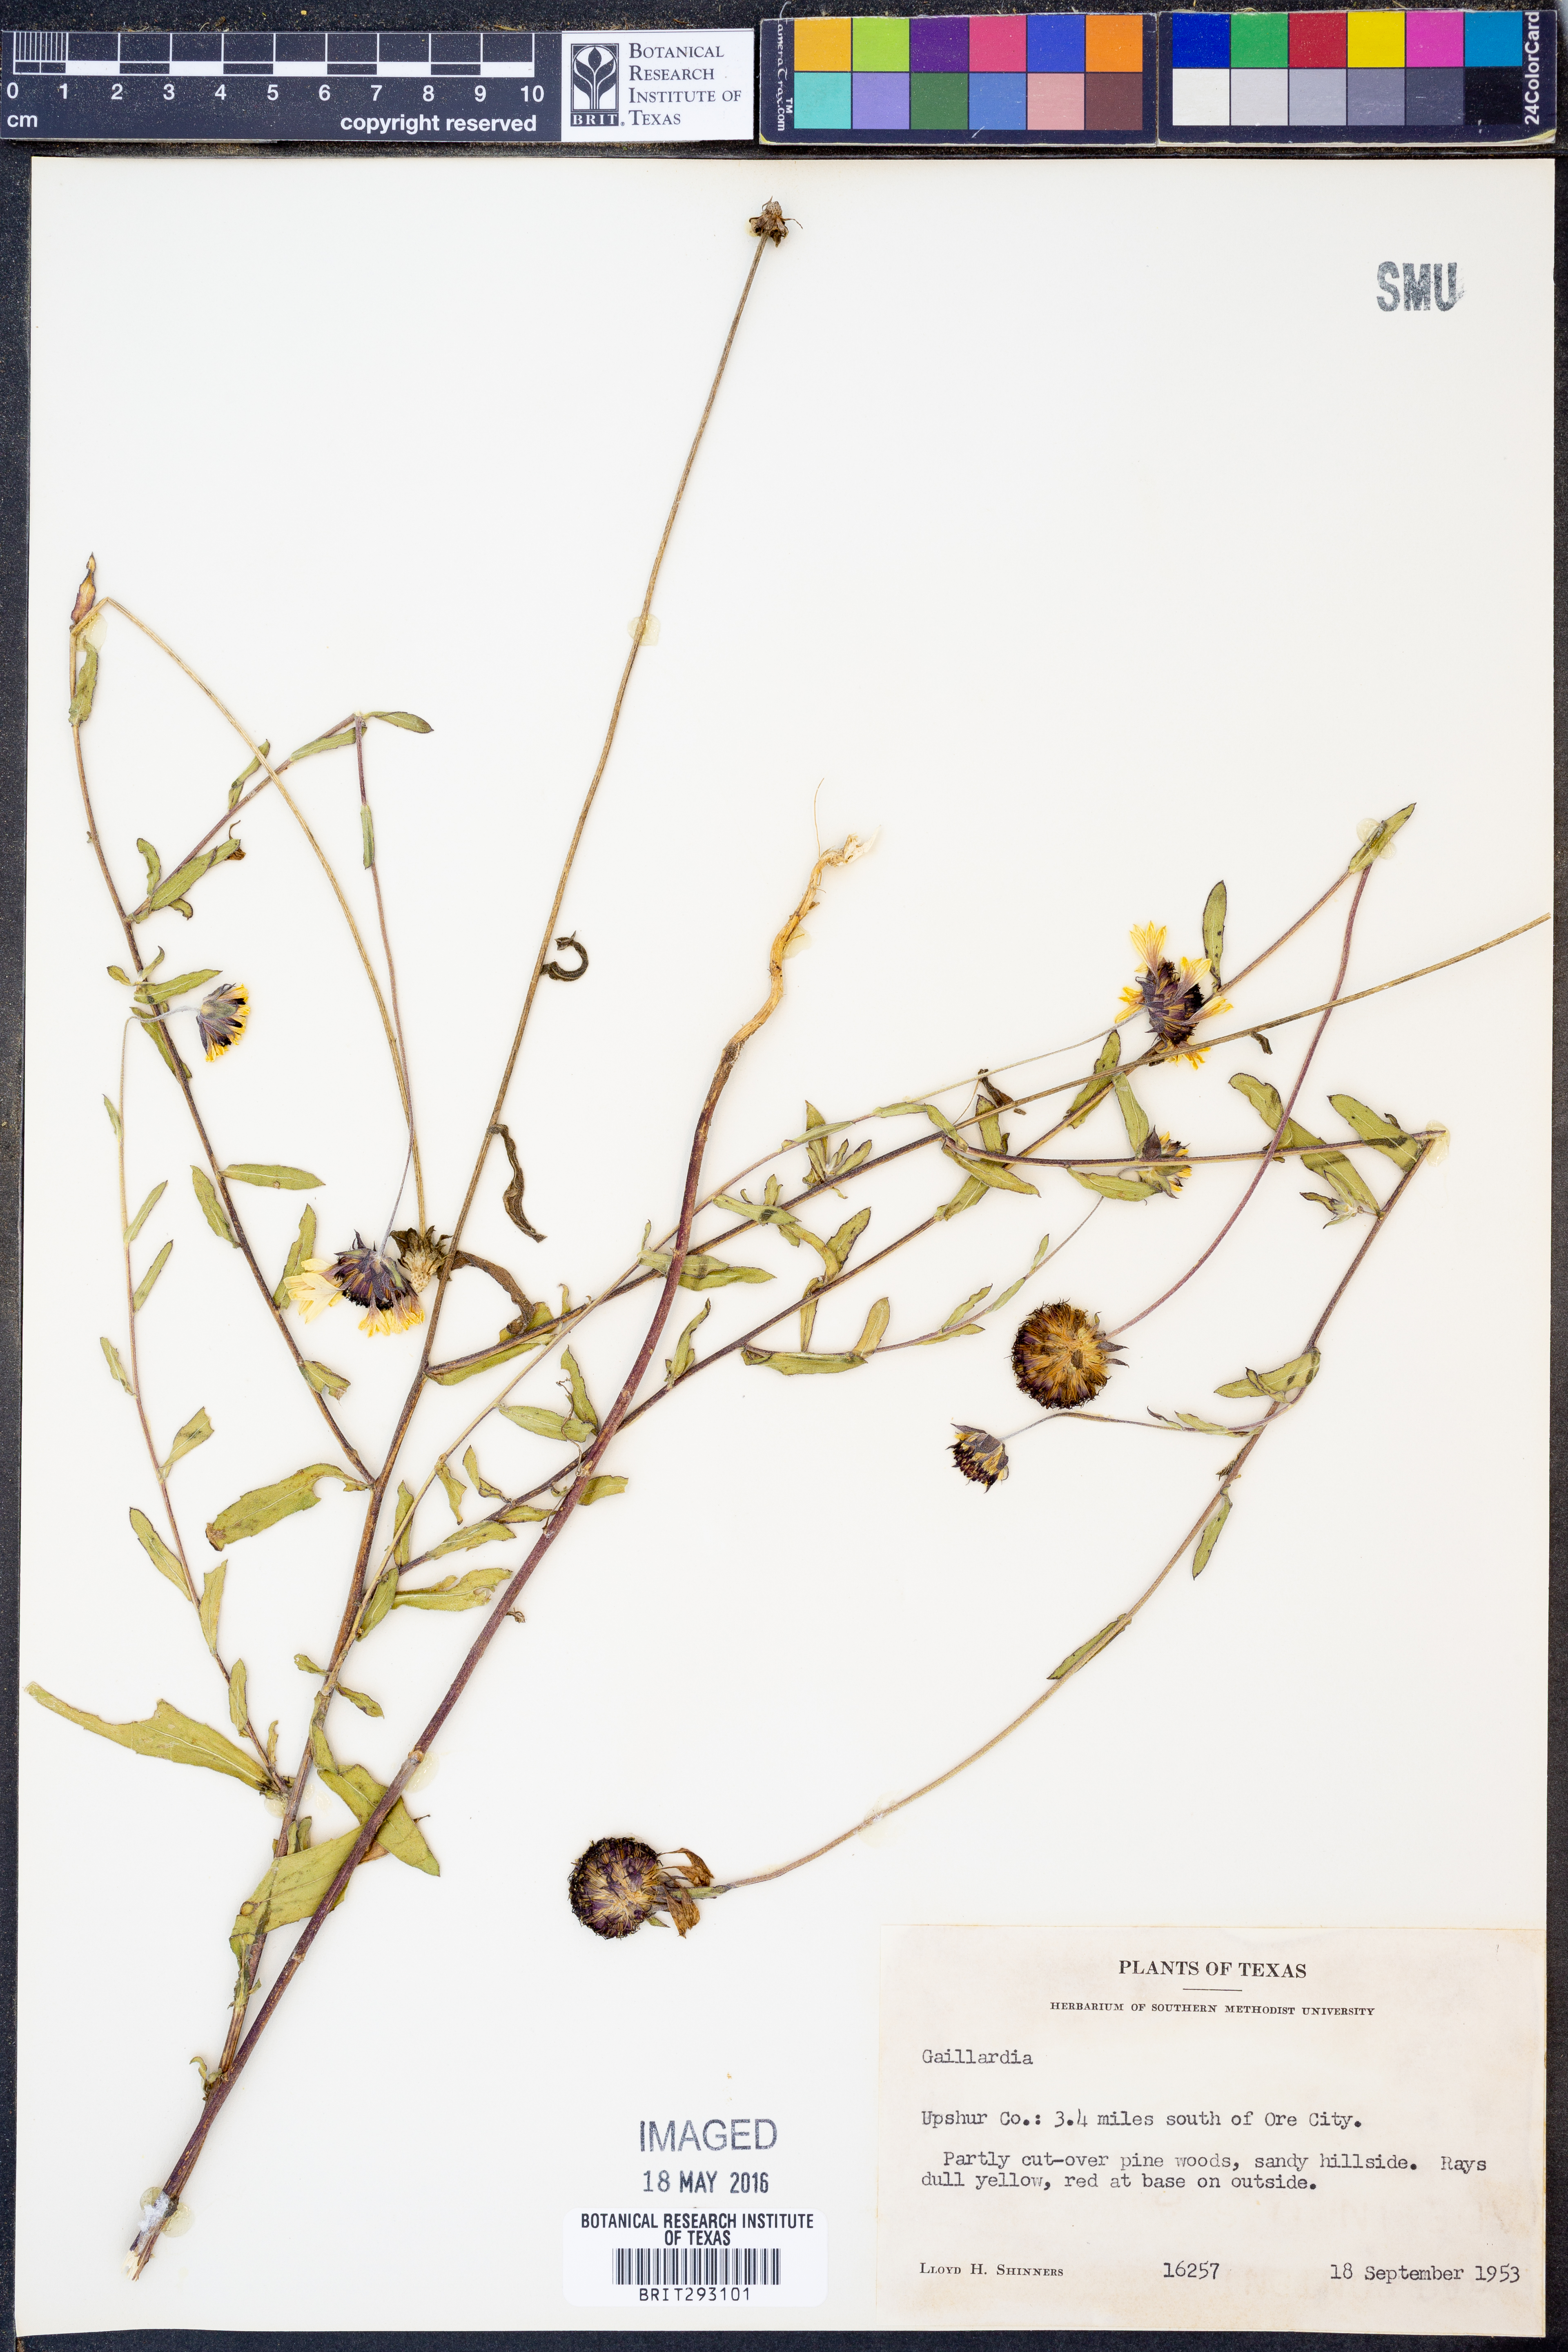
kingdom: Plantae
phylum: Tracheophyta
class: Magnoliopsida
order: Asterales
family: Asteraceae
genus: Gaillardia
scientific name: Gaillardia
